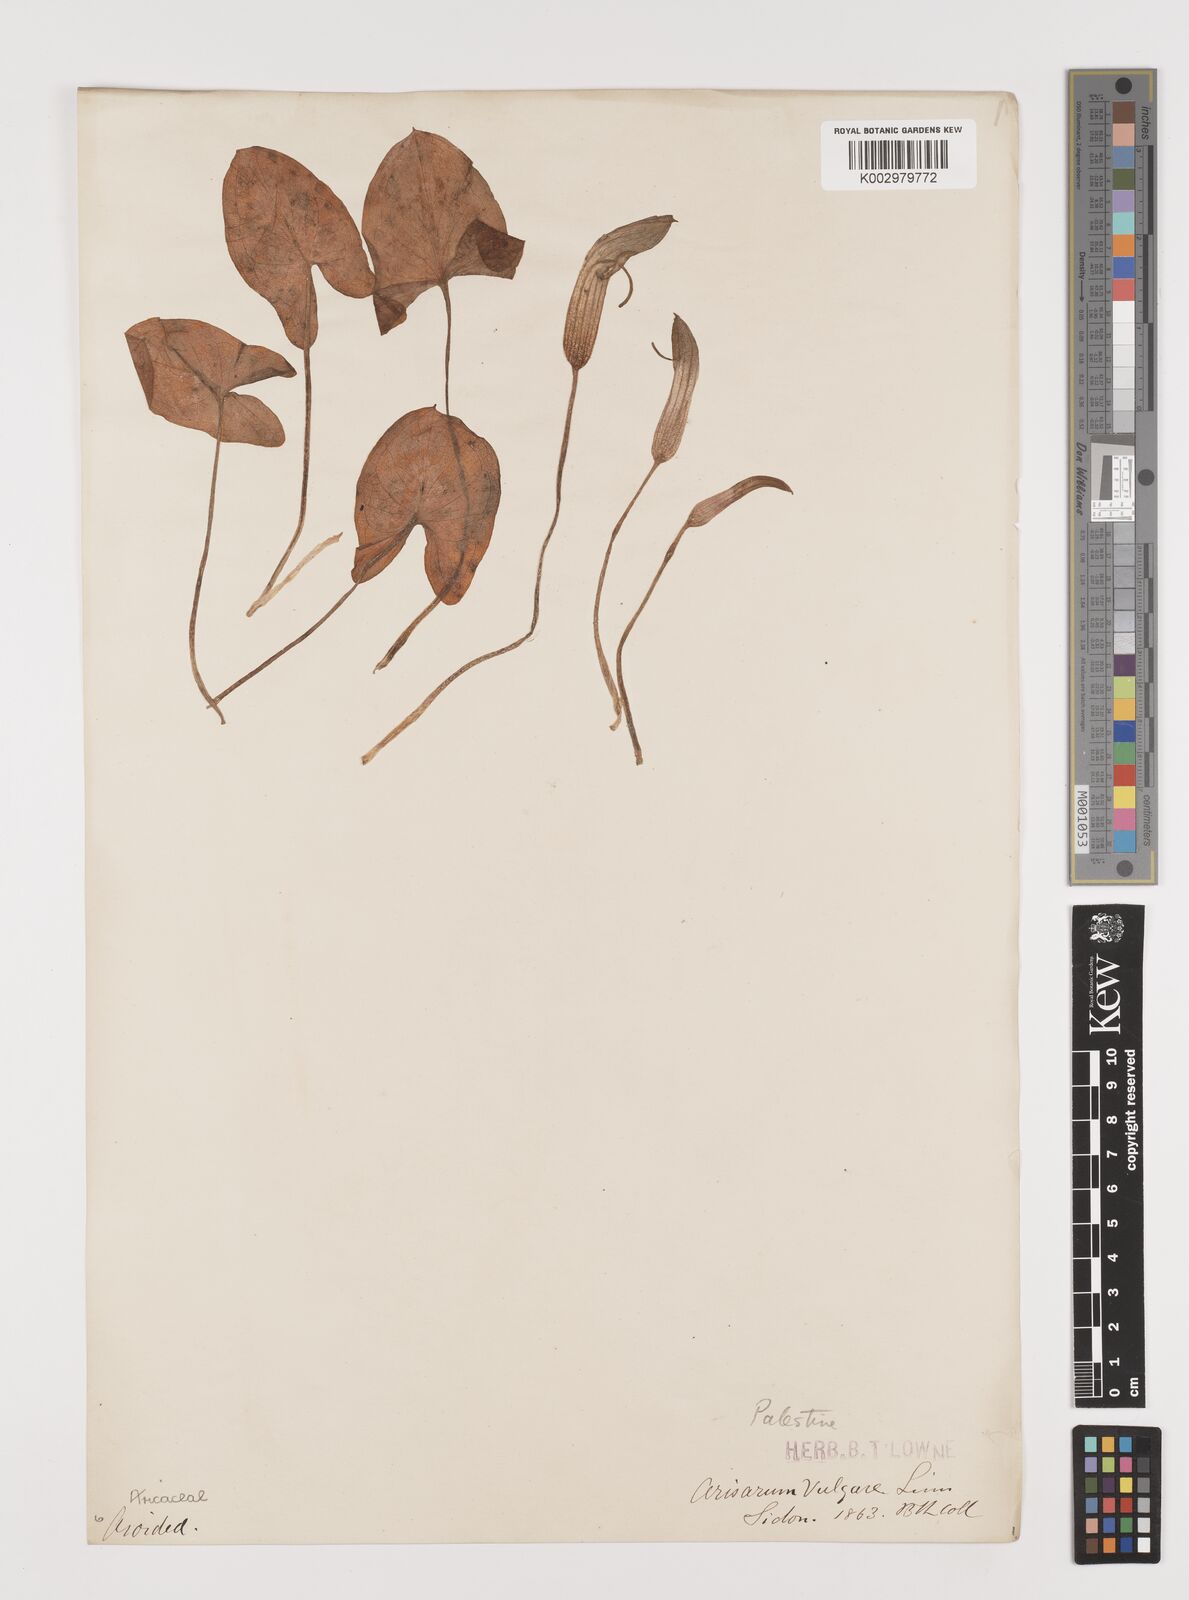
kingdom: Plantae
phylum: Tracheophyta
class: Liliopsida
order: Alismatales
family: Araceae
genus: Arisarum
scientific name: Arisarum vulgare
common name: Common arisarum
